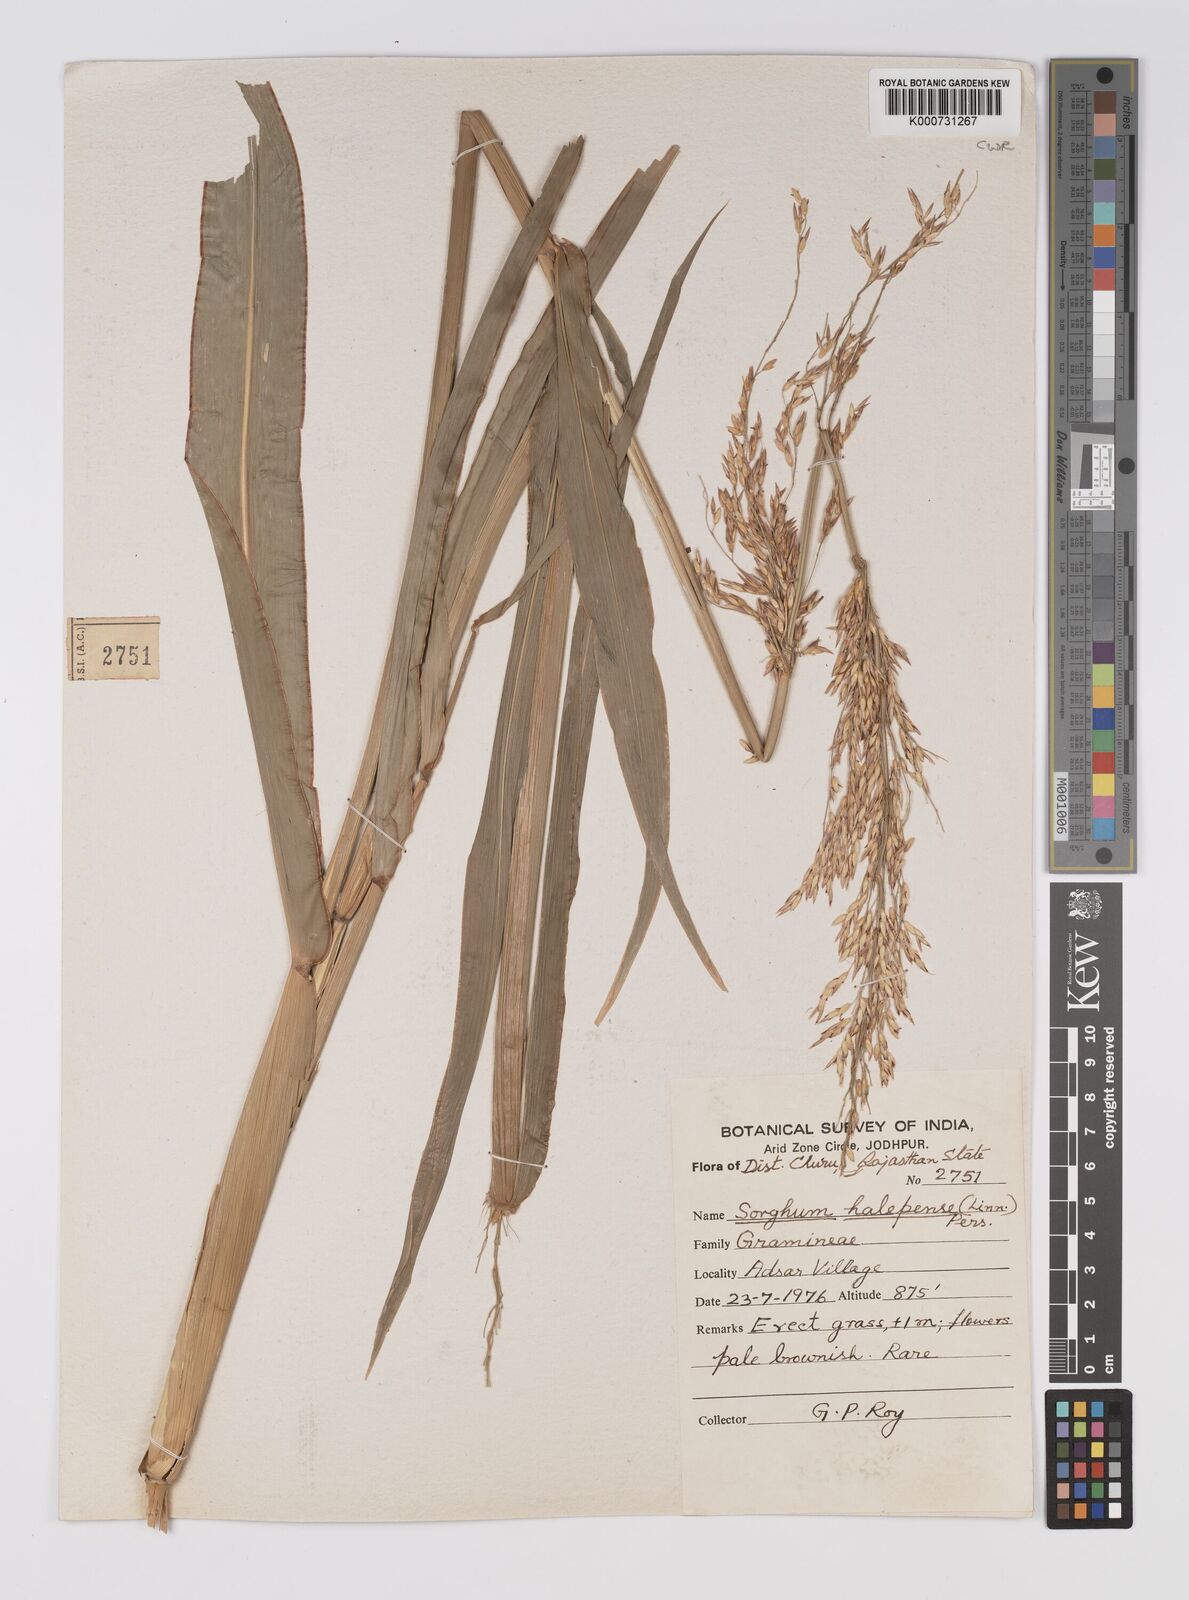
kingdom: Plantae
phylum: Tracheophyta
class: Liliopsida
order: Poales
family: Poaceae
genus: Sorghum
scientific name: Sorghum halepense
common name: Johnson-grass
